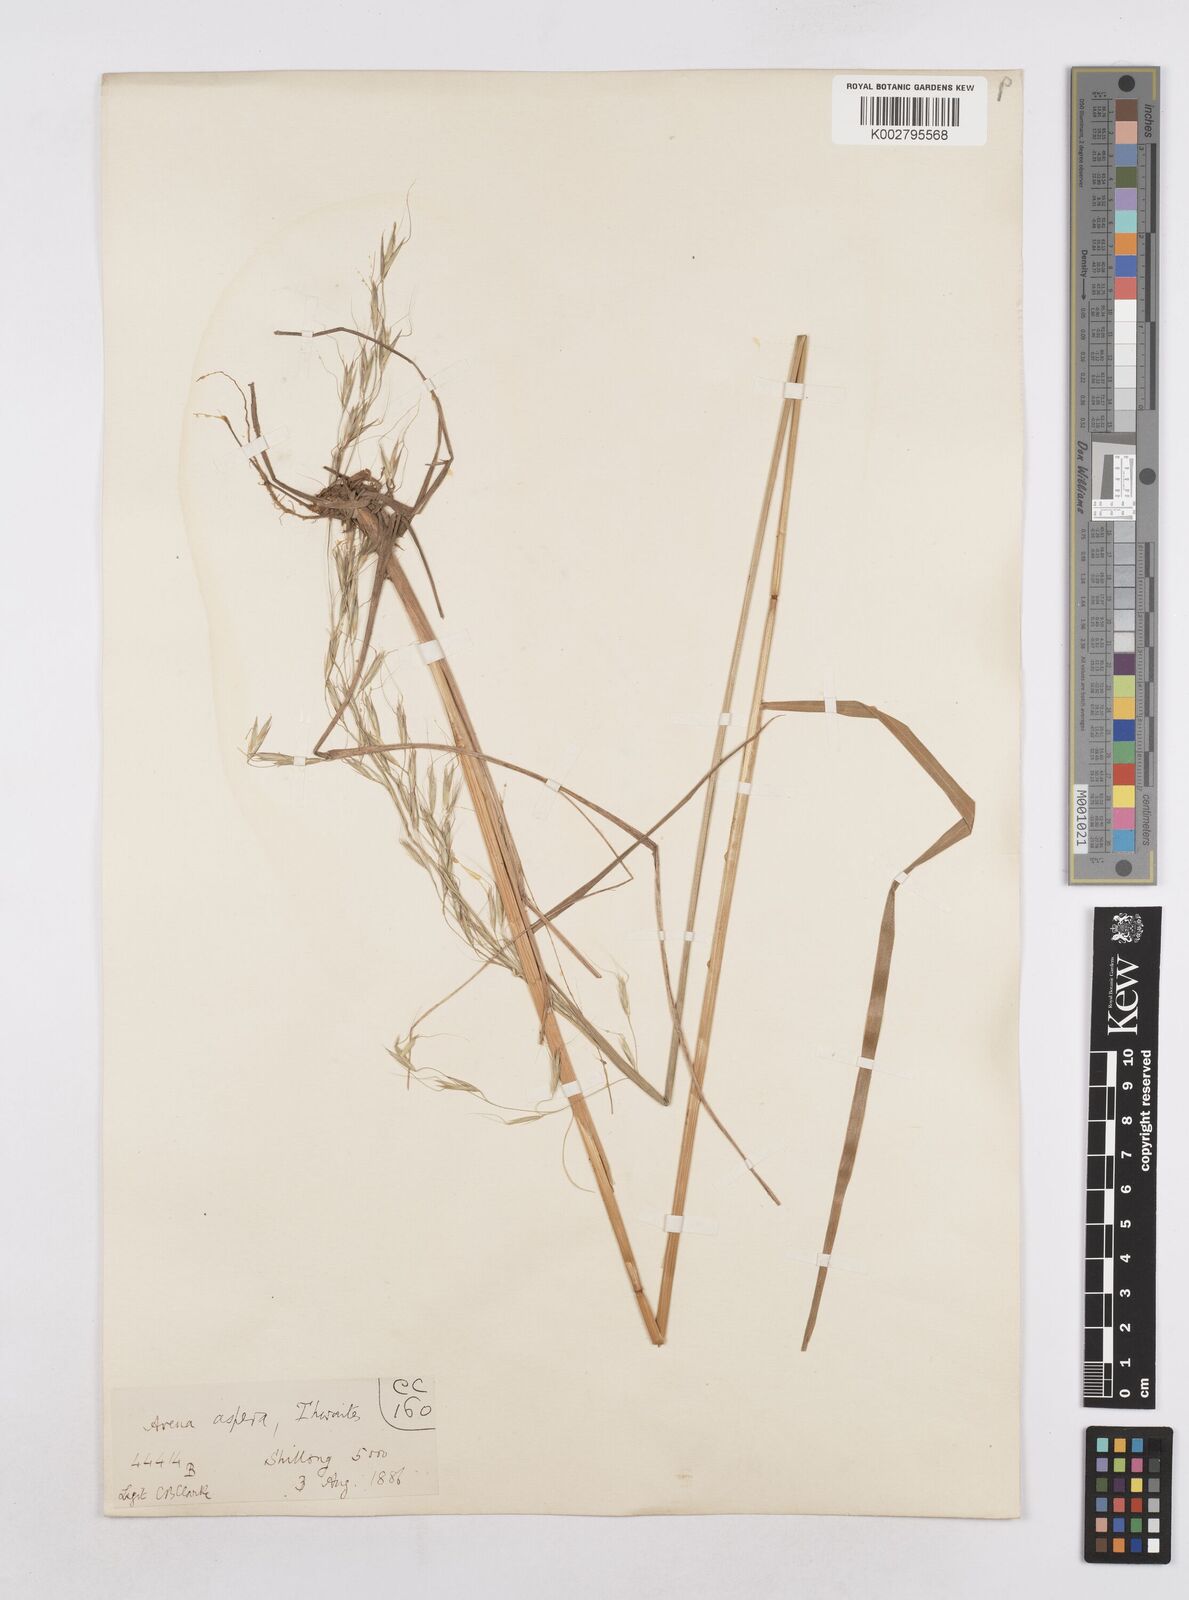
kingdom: Plantae
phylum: Tracheophyta
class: Liliopsida
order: Poales
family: Poaceae
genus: Trisetopsis
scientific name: Trisetopsis junghuhnii
